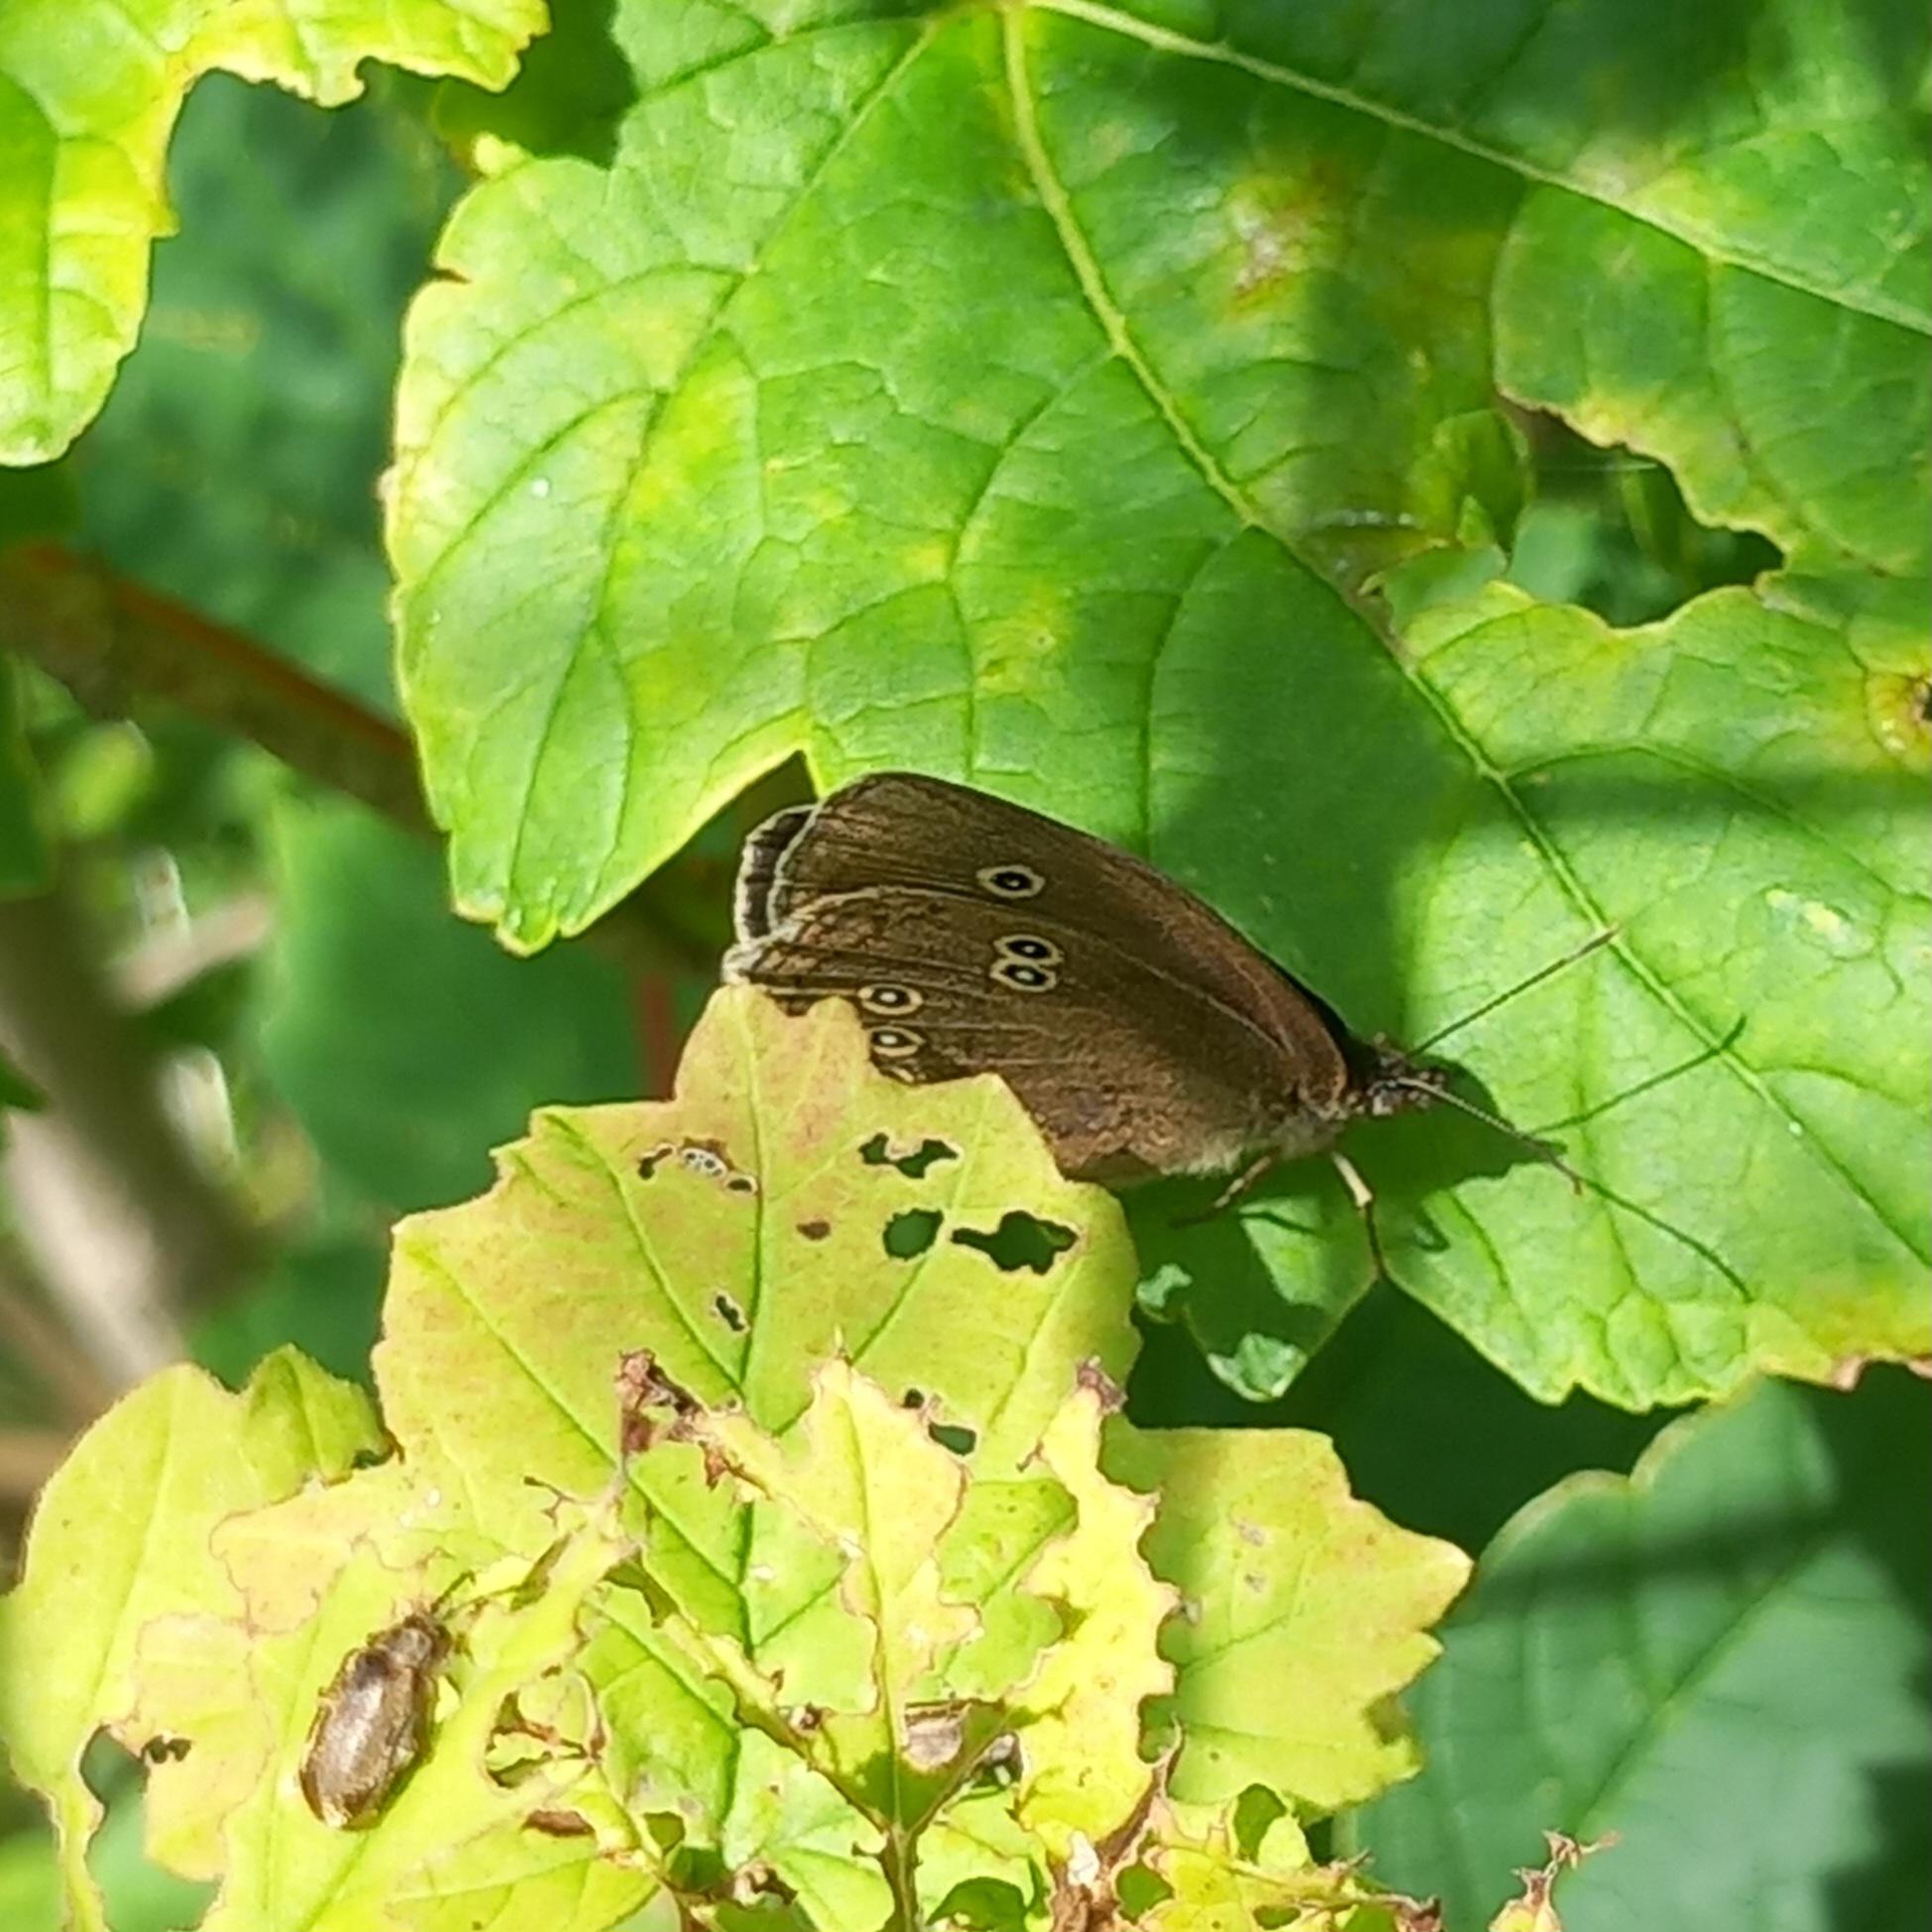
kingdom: Animalia
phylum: Arthropoda
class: Insecta
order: Lepidoptera
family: Nymphalidae
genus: Aphantopus
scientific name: Aphantopus hyperantus
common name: Engrandøje
